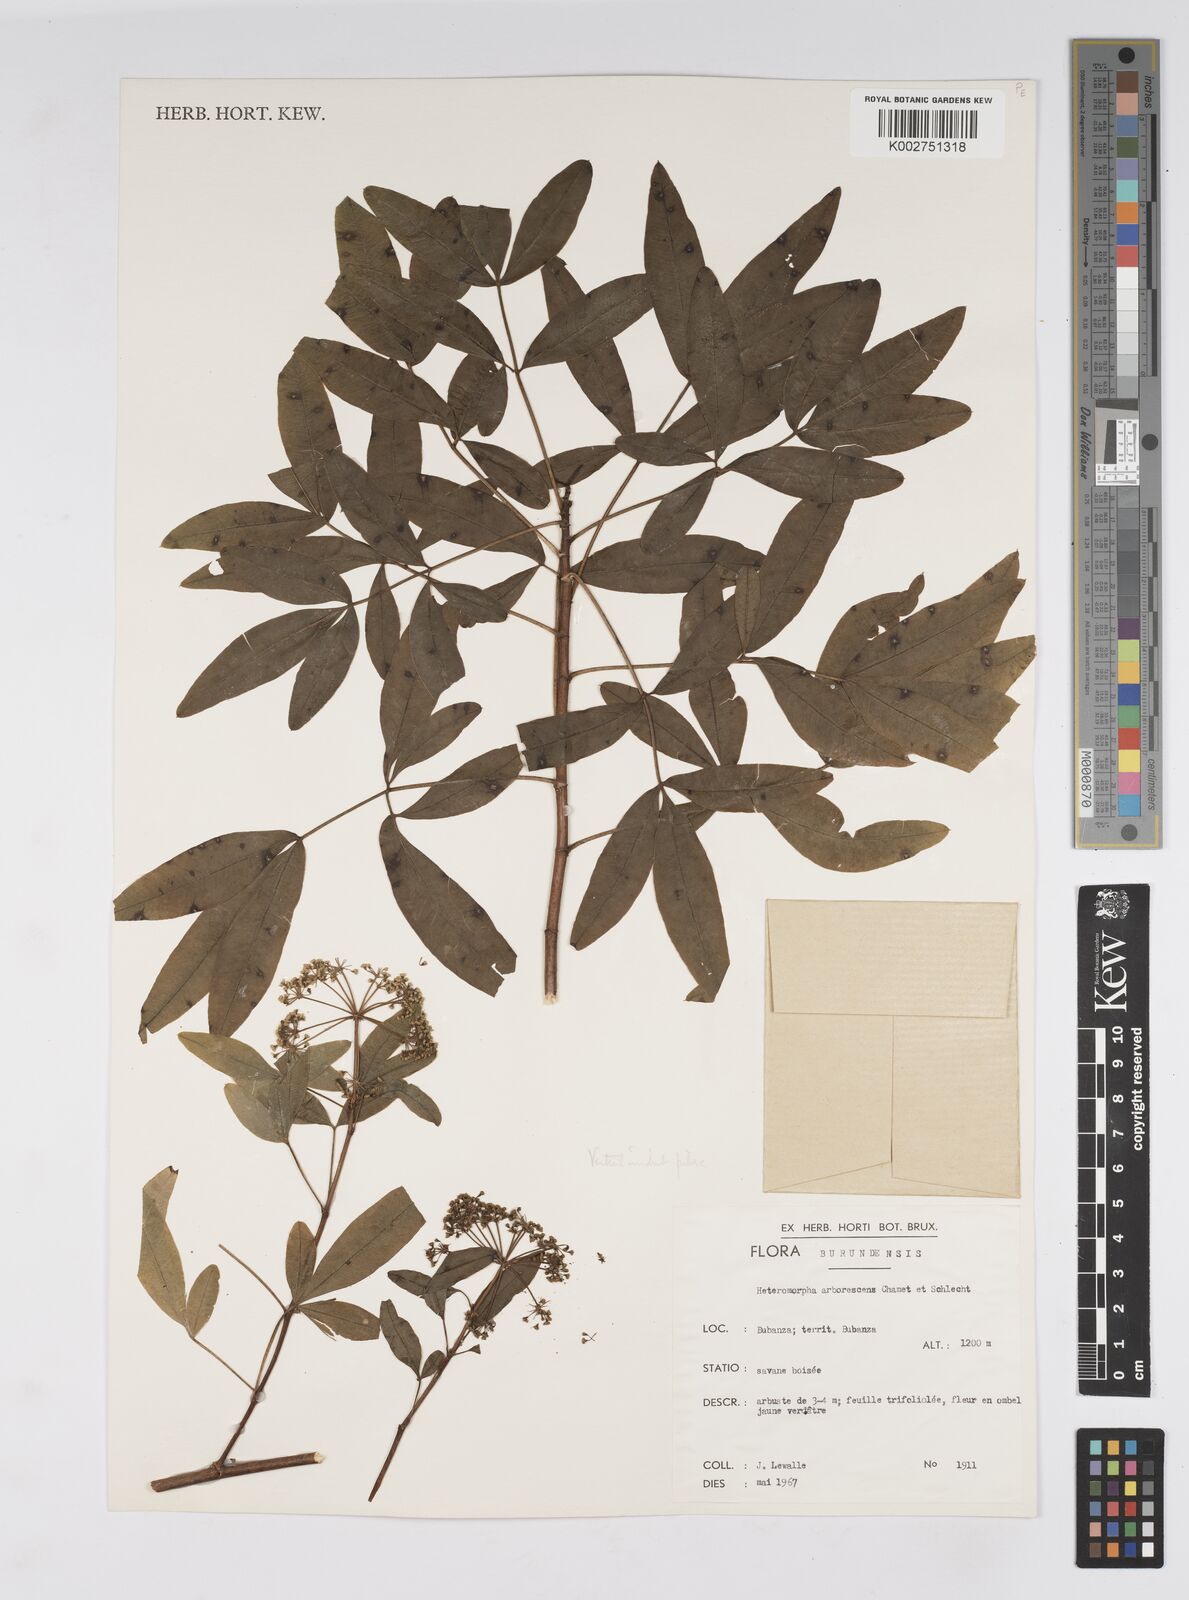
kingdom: Plantae
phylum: Tracheophyta
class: Magnoliopsida
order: Apiales
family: Apiaceae
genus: Heteromorpha
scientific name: Heteromorpha arborescens
